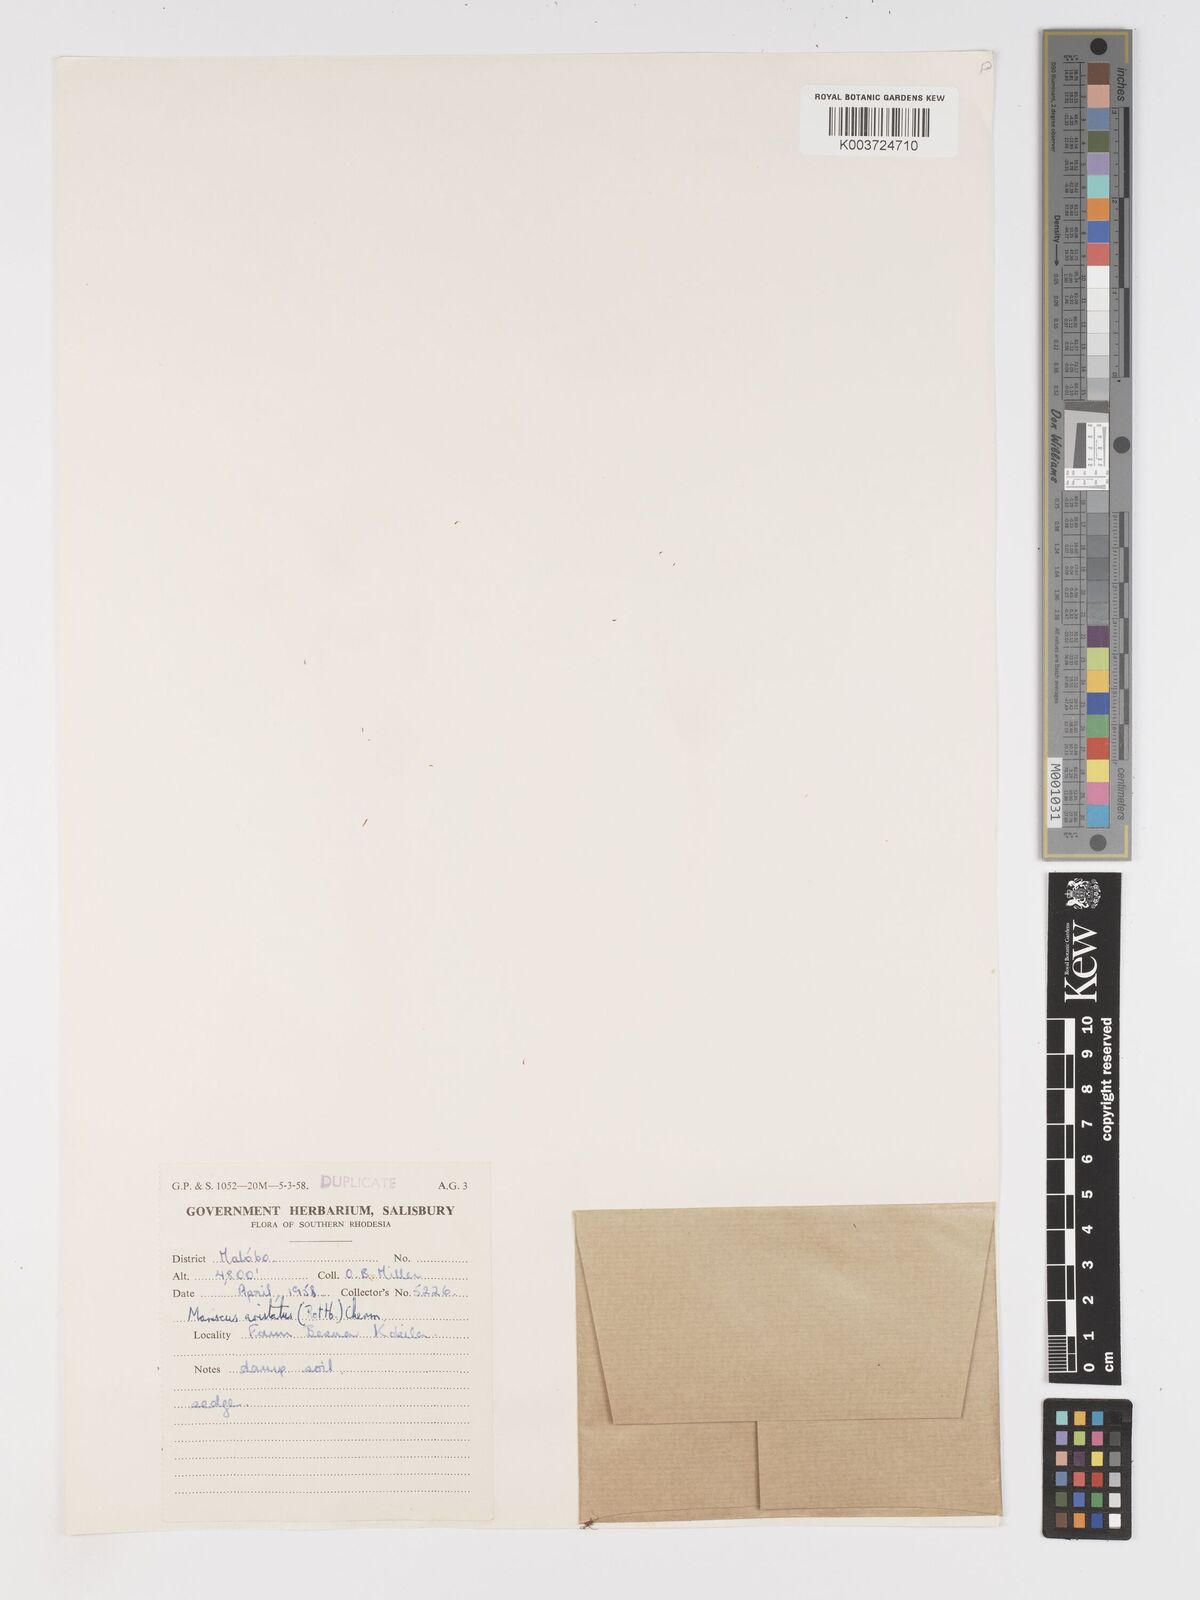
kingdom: Plantae
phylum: Tracheophyta
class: Liliopsida
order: Poales
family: Cyperaceae
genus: Cyperus
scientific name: Cyperus squarrosus
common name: Awned cyperus
